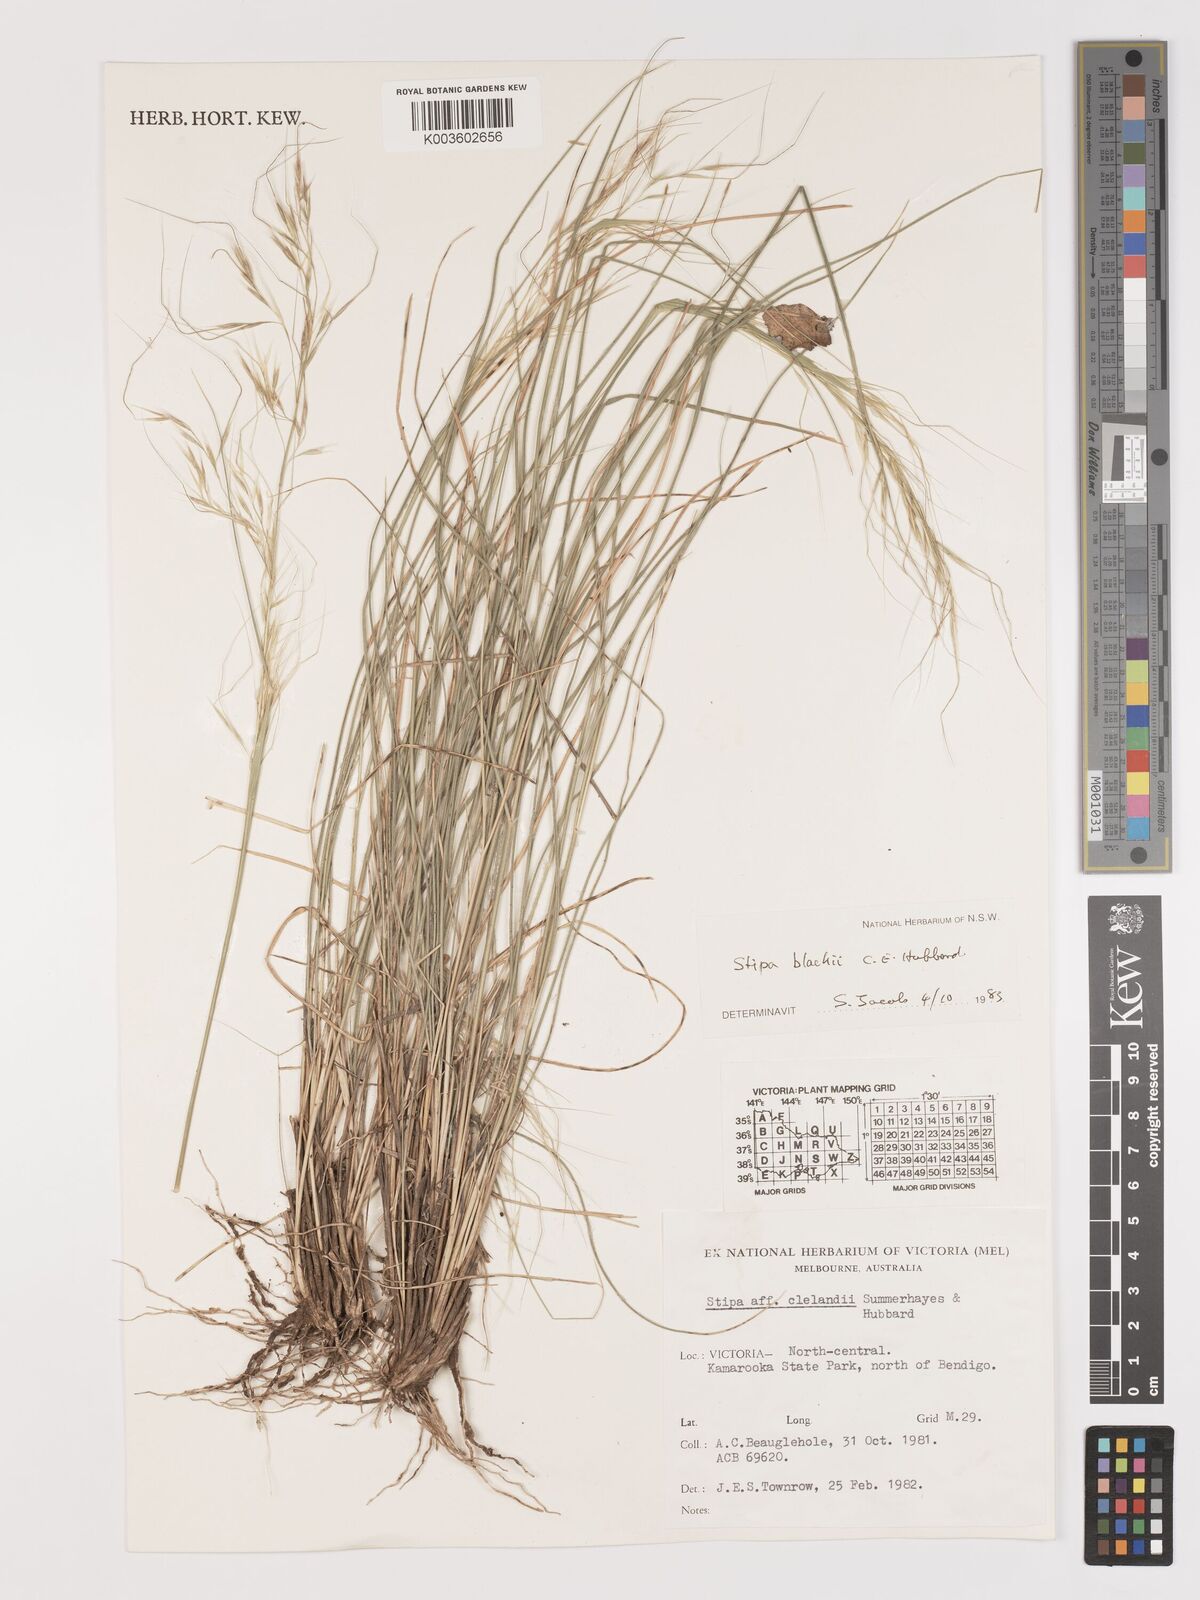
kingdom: Plantae
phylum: Tracheophyta
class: Liliopsida
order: Poales
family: Poaceae
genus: Austrostipa
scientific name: Austrostipa blackii
